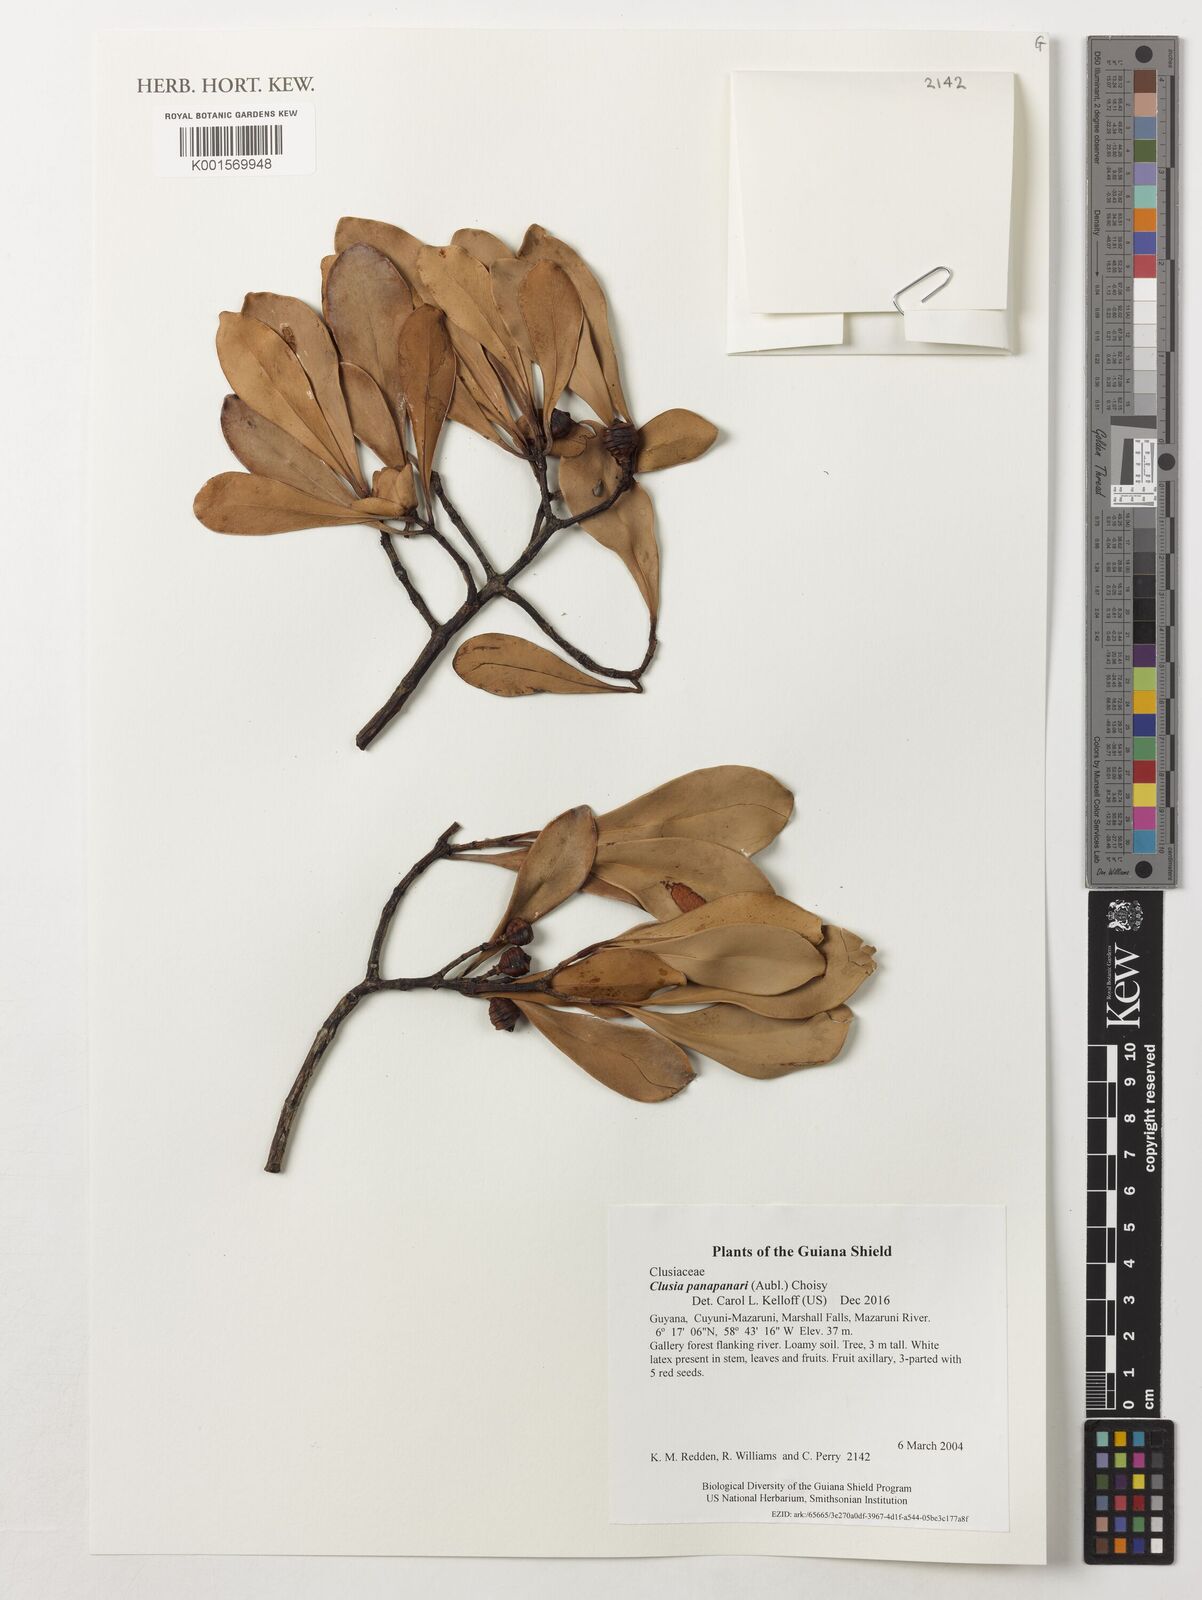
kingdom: Plantae
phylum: Tracheophyta
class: Magnoliopsida
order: Malpighiales
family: Clusiaceae
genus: Clusia
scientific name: Clusia panapanari
